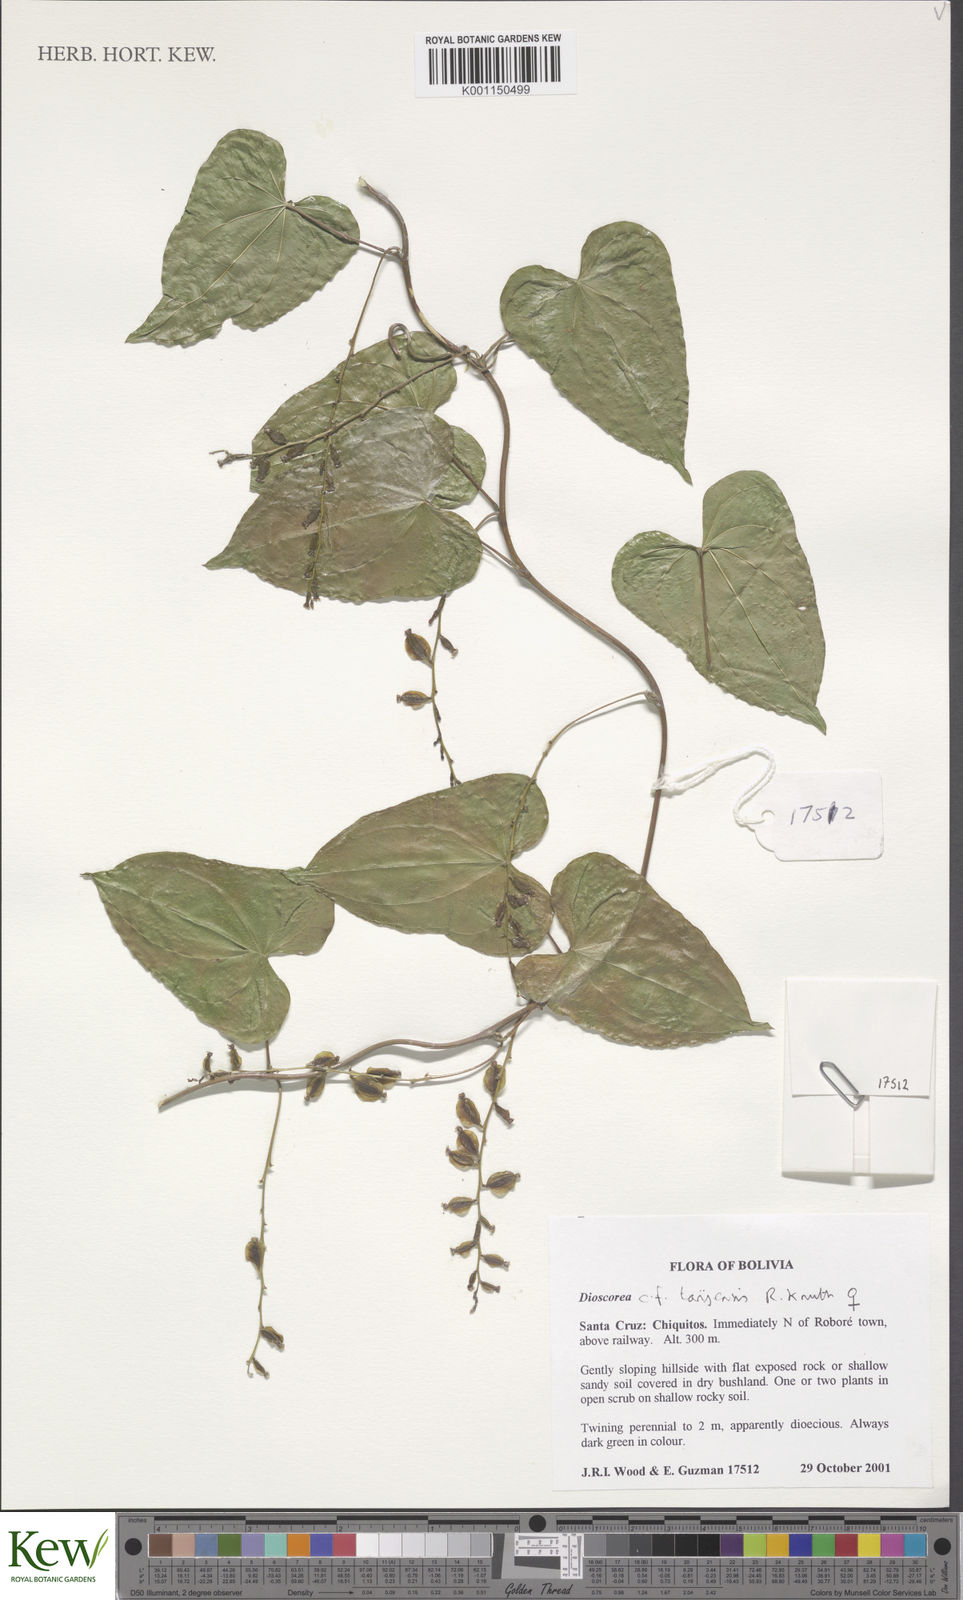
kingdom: Plantae
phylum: Tracheophyta
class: Liliopsida
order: Dioscoreales
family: Dioscoreaceae
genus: Dioscorea
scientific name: Dioscorea tarijensis
